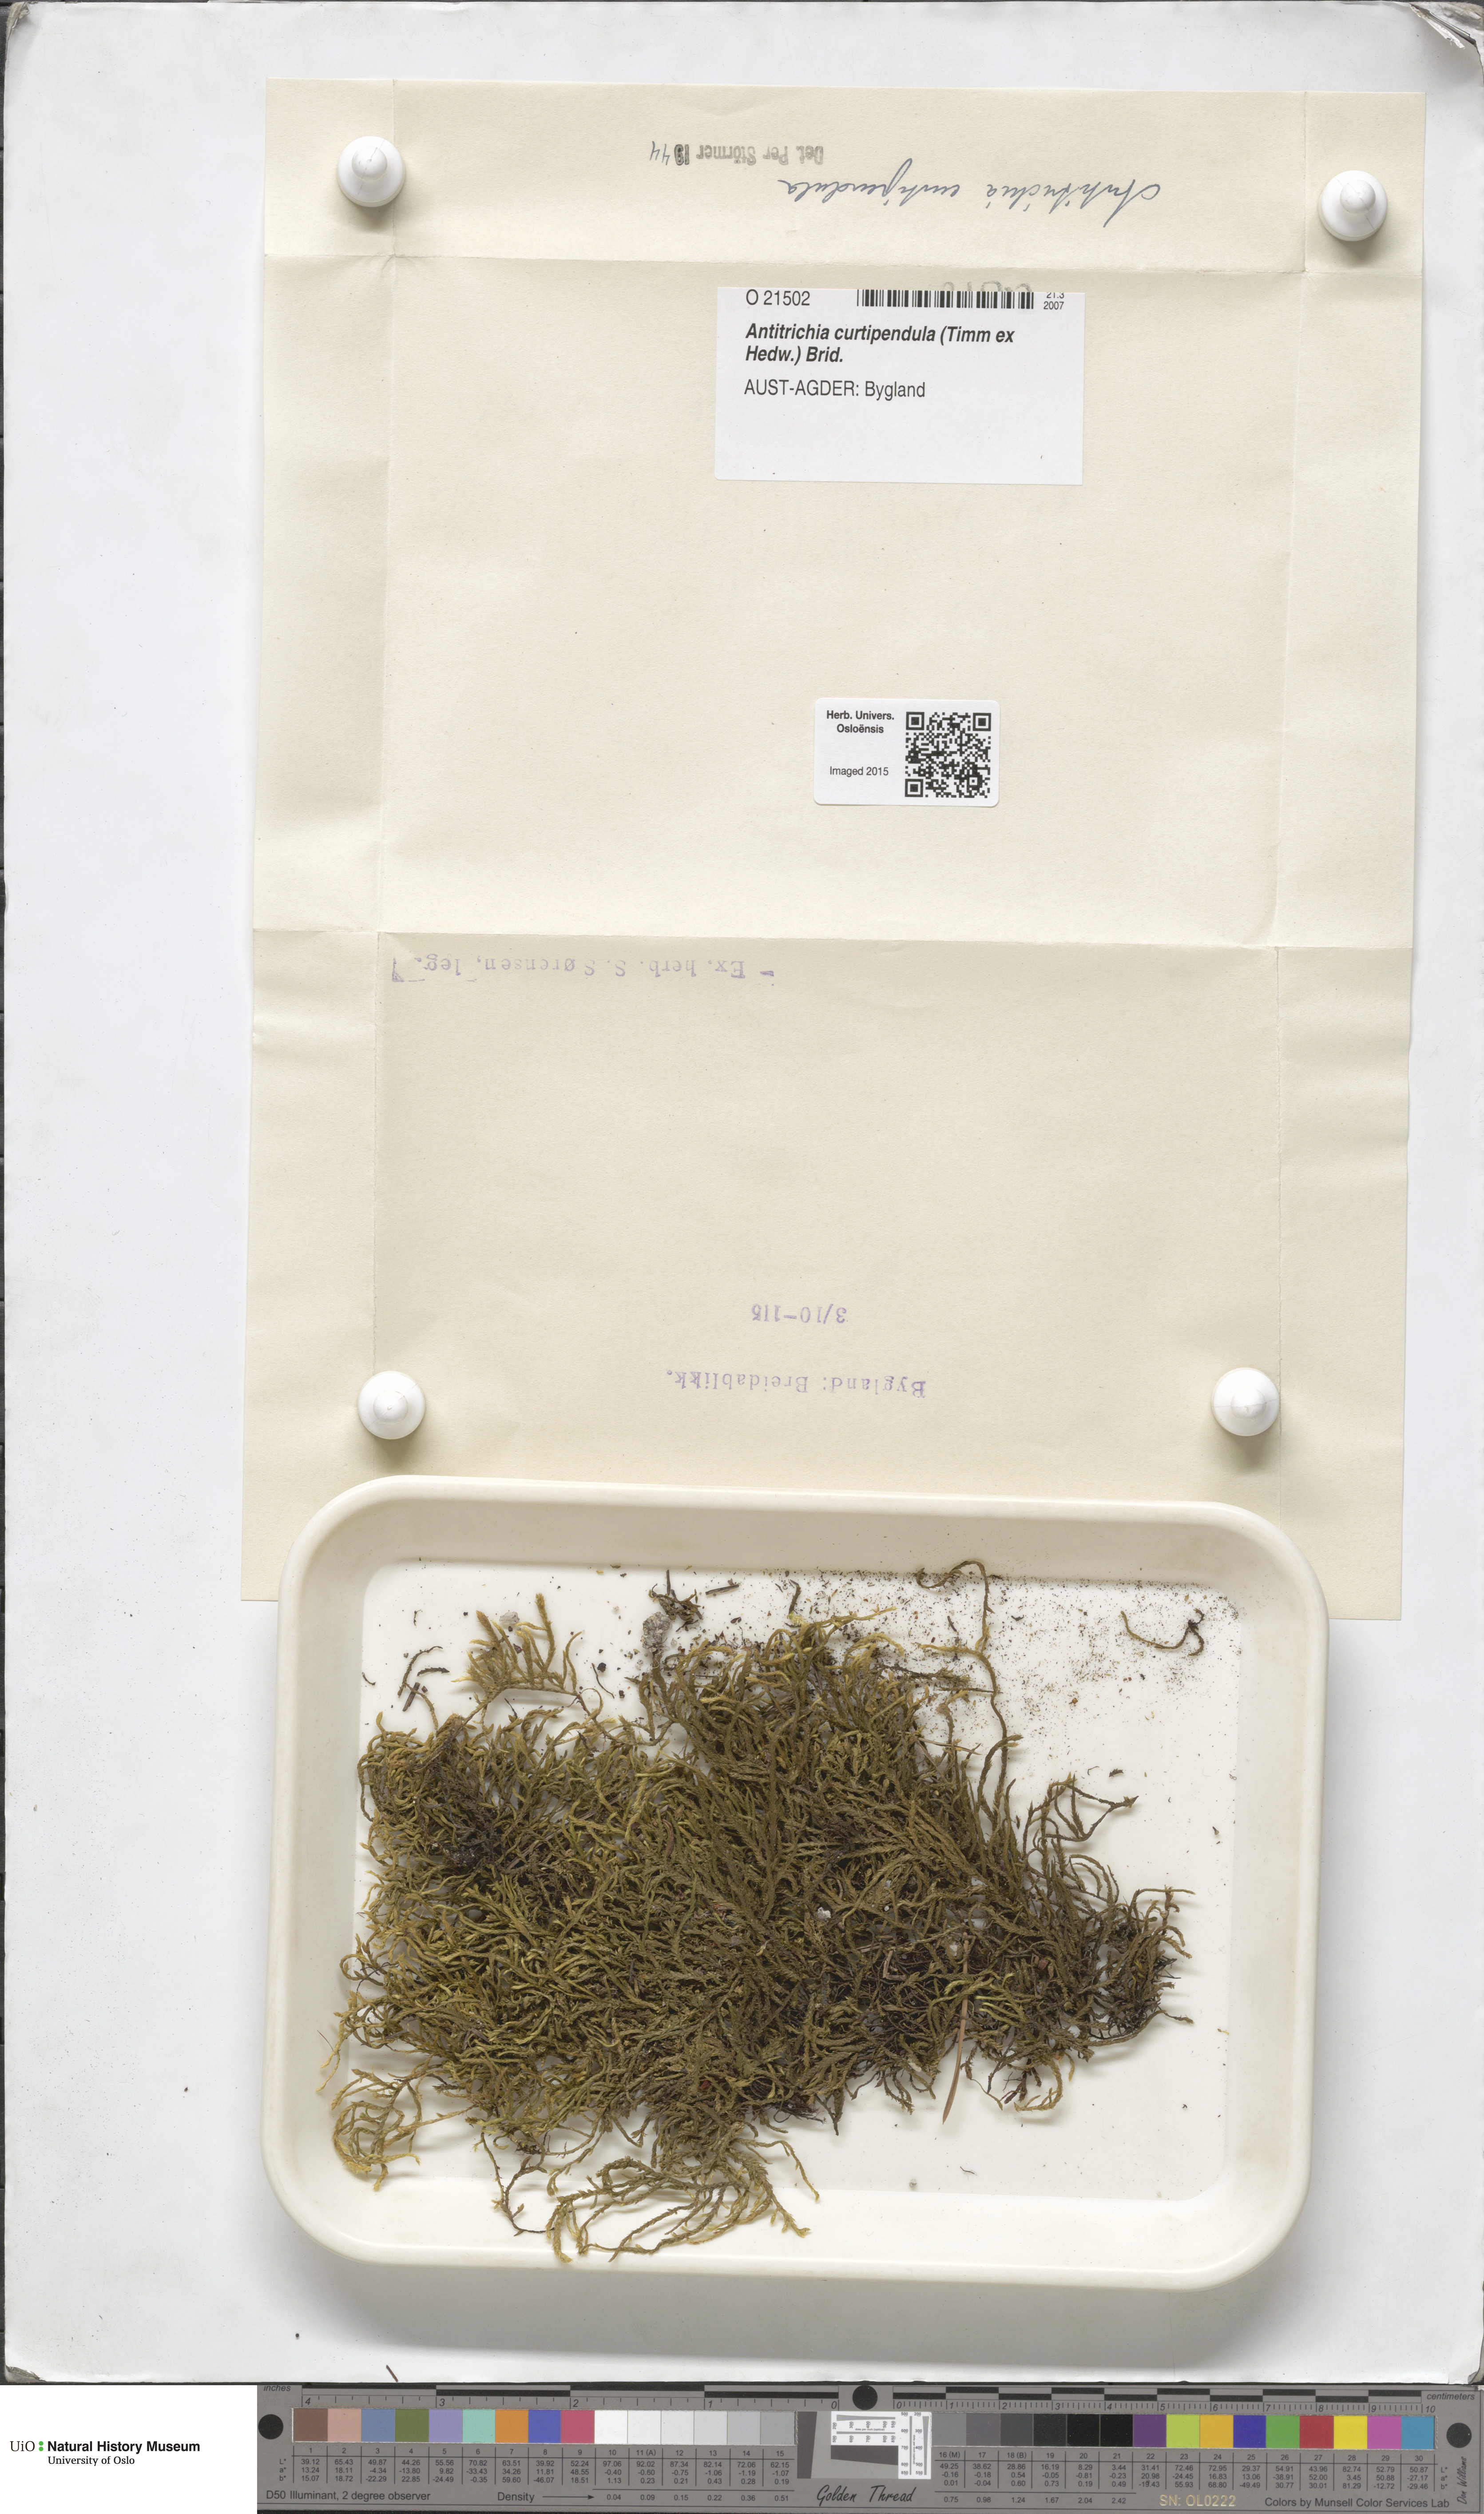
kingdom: Plantae
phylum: Bryophyta
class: Bryopsida
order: Hypnales
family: Antitrichiaceae
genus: Antitrichia
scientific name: Antitrichia curtipendula
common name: Pendulous wing-moss
